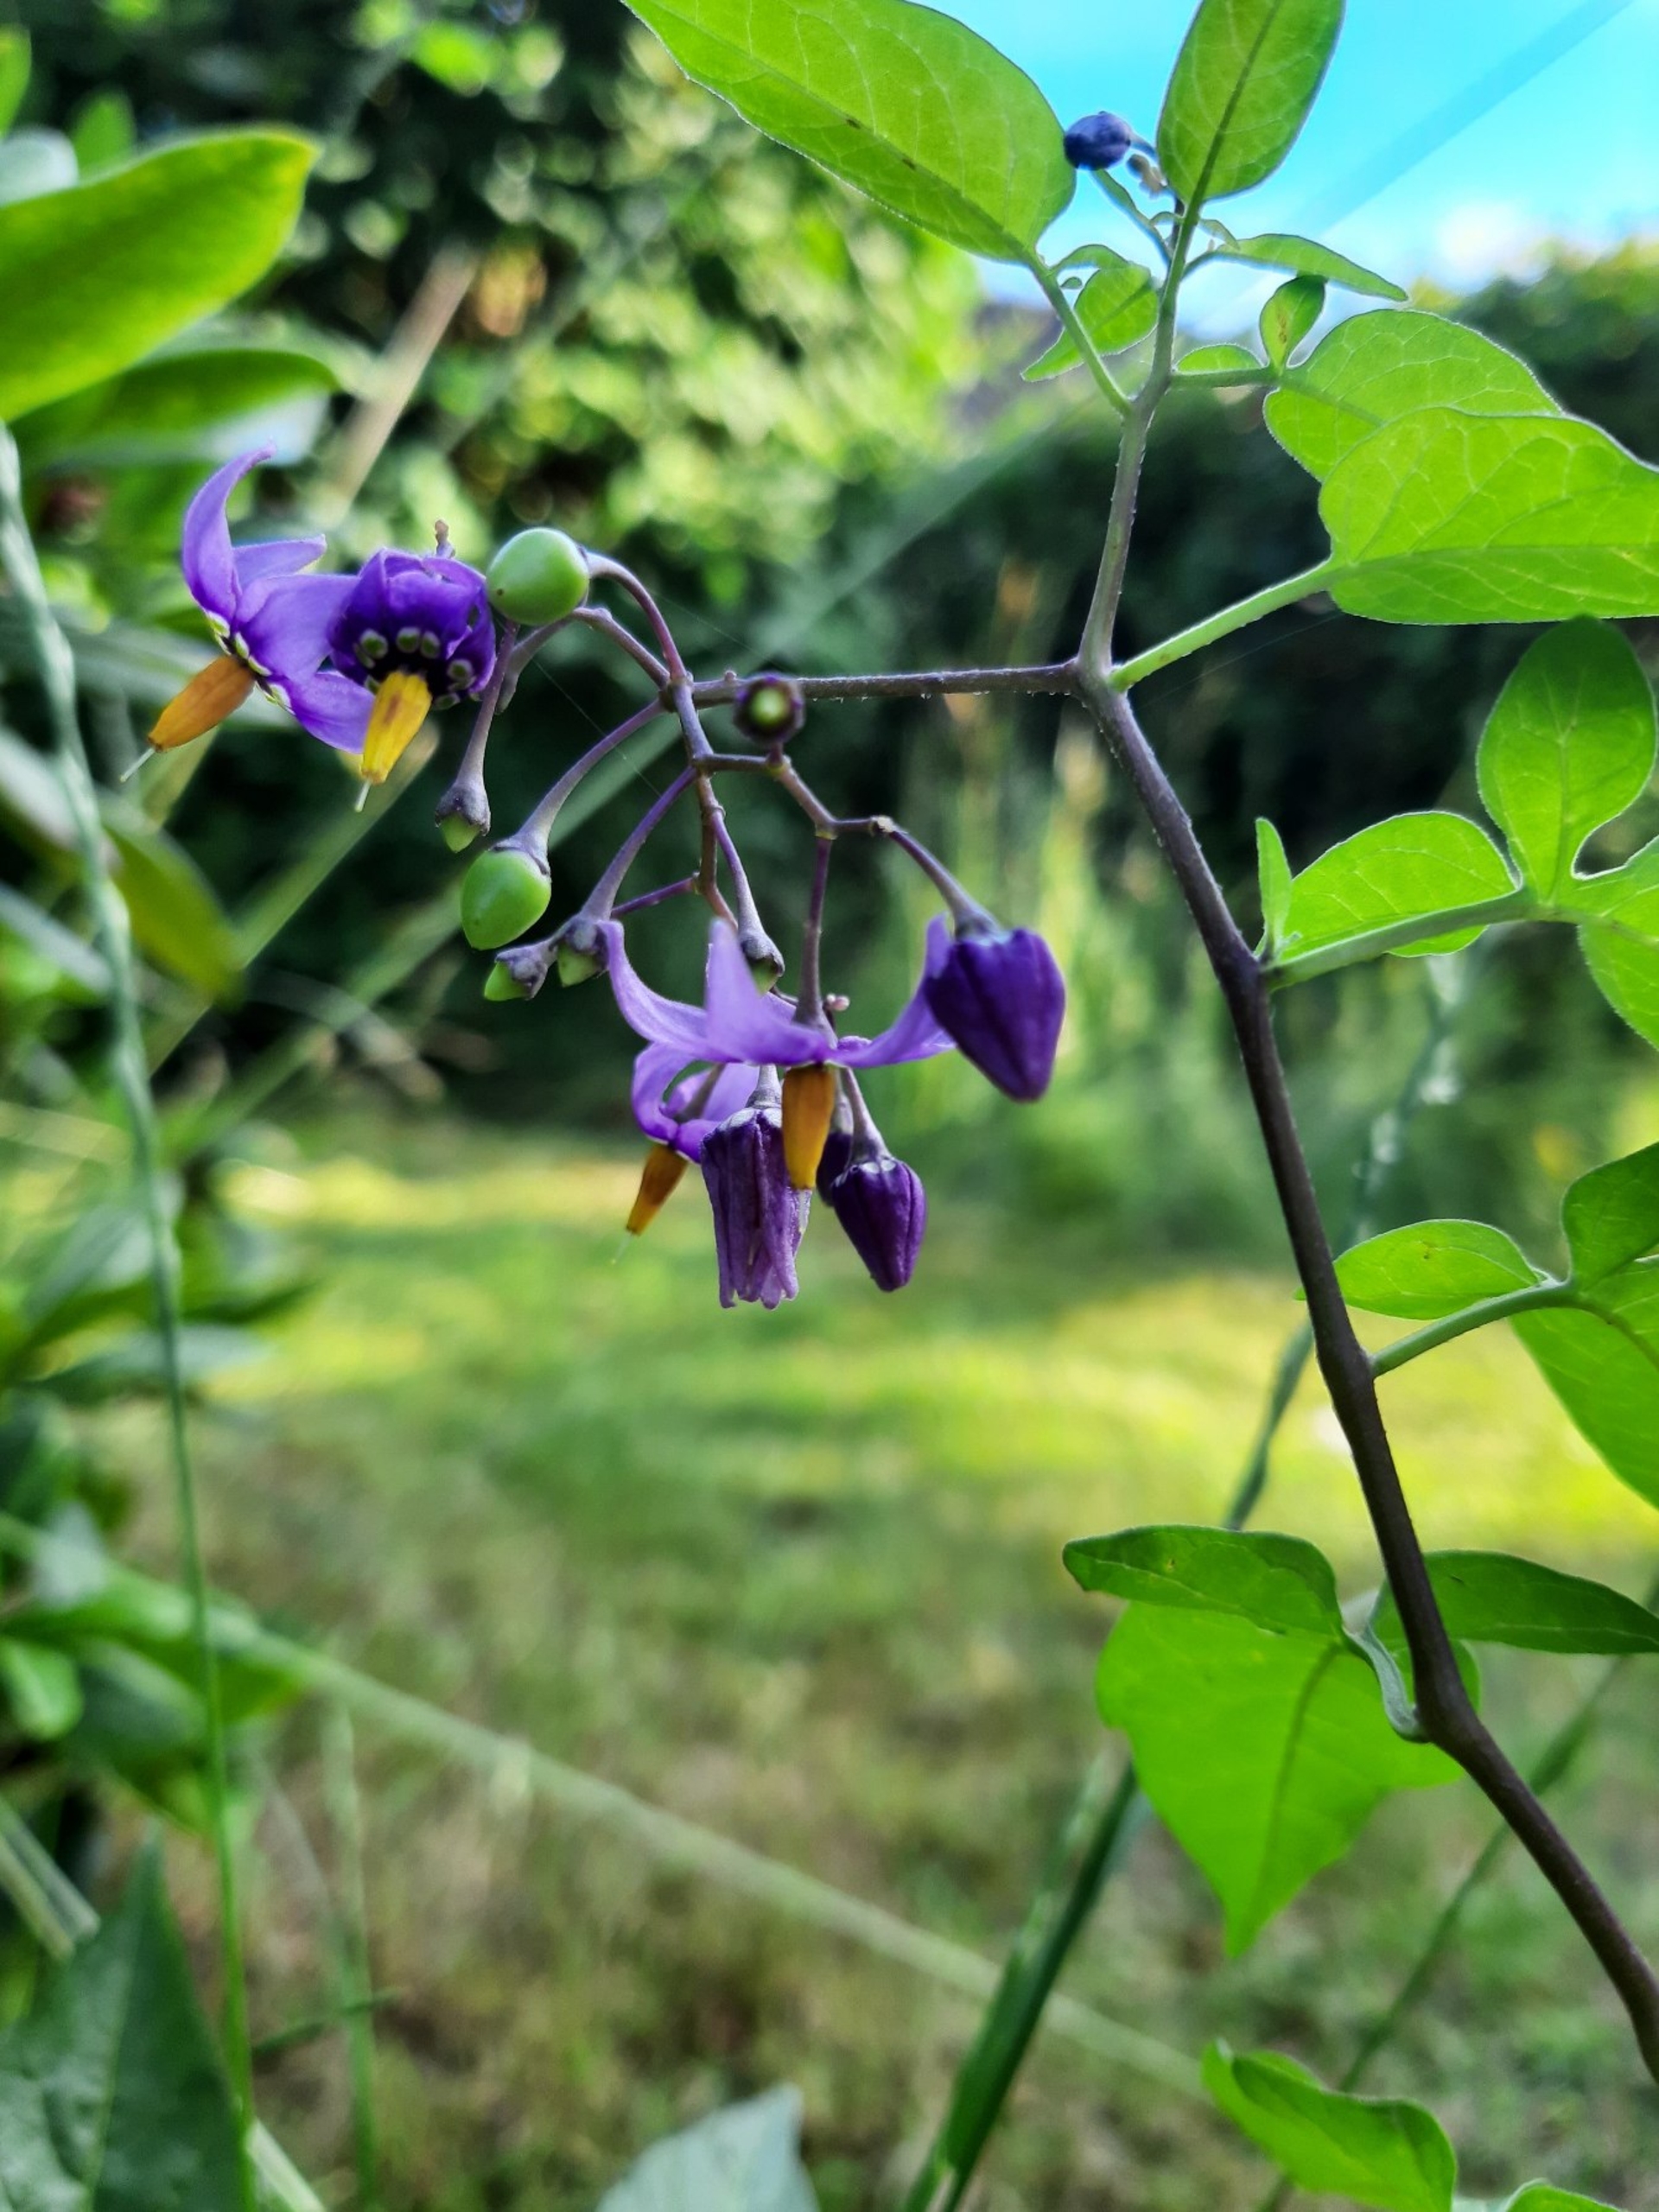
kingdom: Plantae
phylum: Tracheophyta
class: Magnoliopsida
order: Solanales
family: Solanaceae
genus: Solanum
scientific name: Solanum dulcamara
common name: Bittersød natskygge
